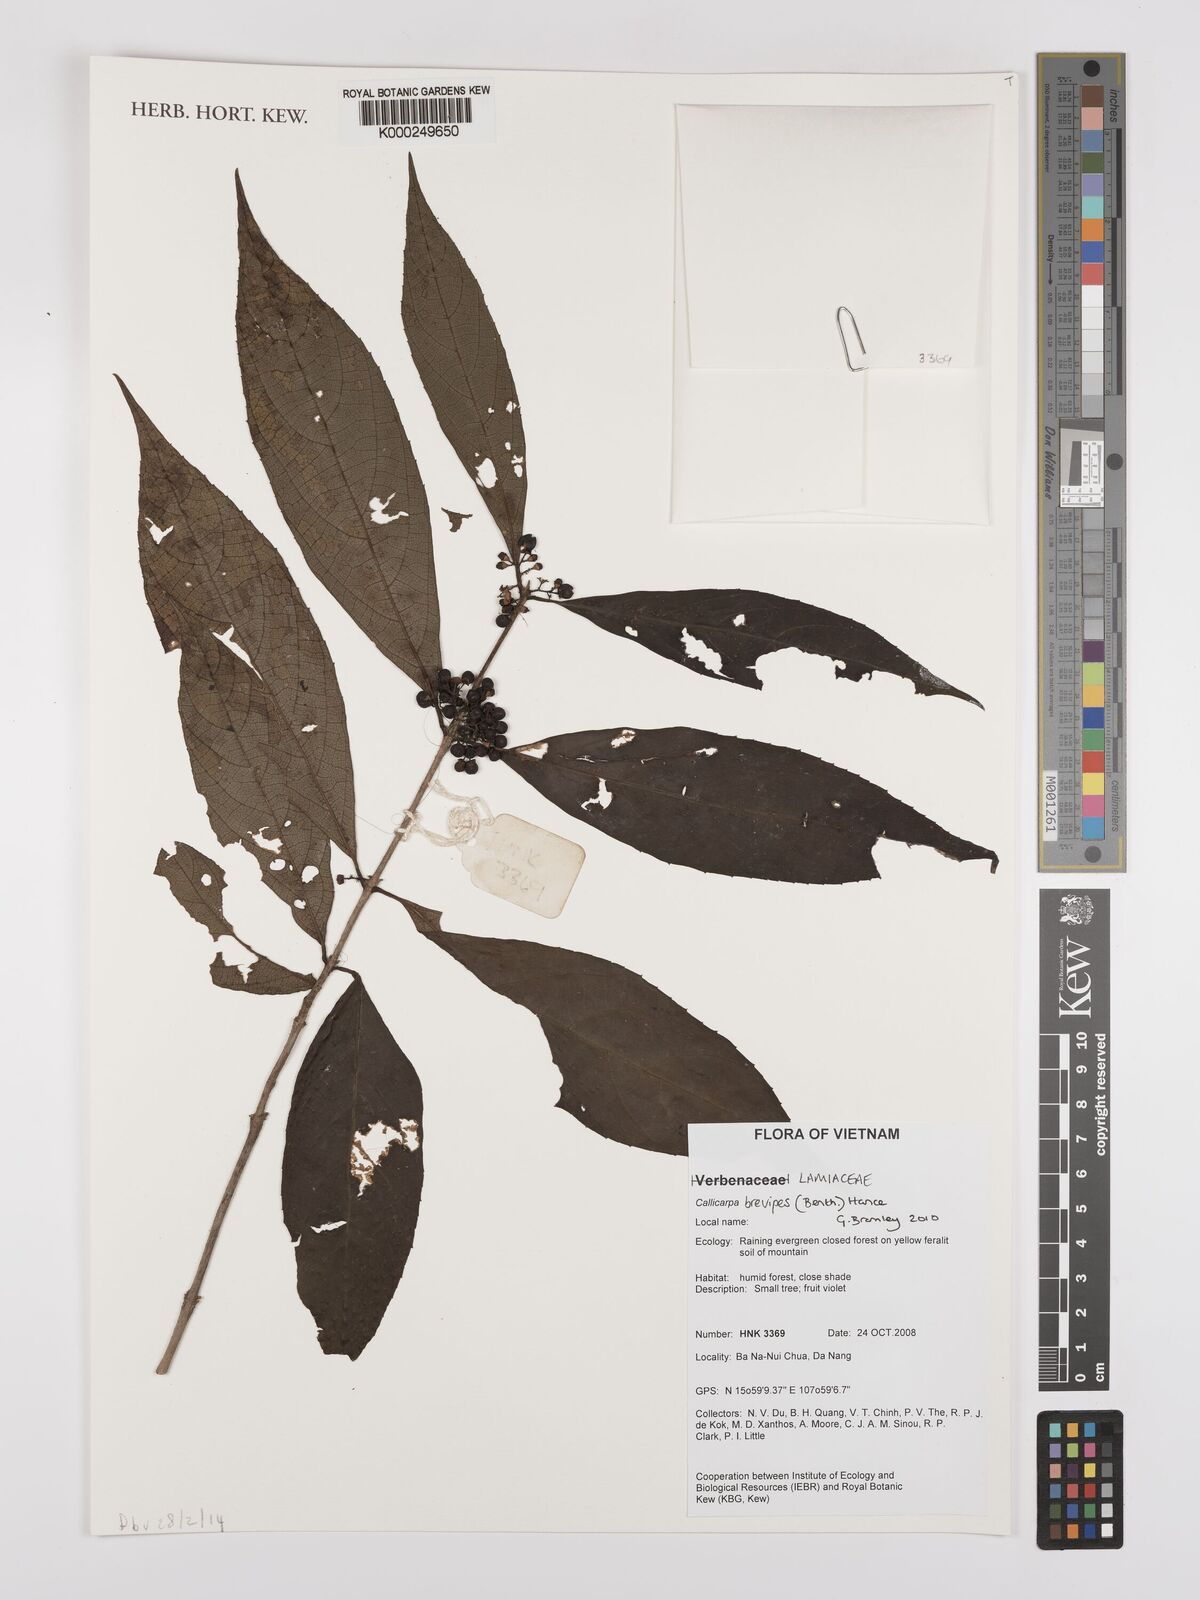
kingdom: Plantae
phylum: Tracheophyta
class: Magnoliopsida
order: Lamiales
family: Lamiaceae
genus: Callicarpa
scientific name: Callicarpa brevipes
